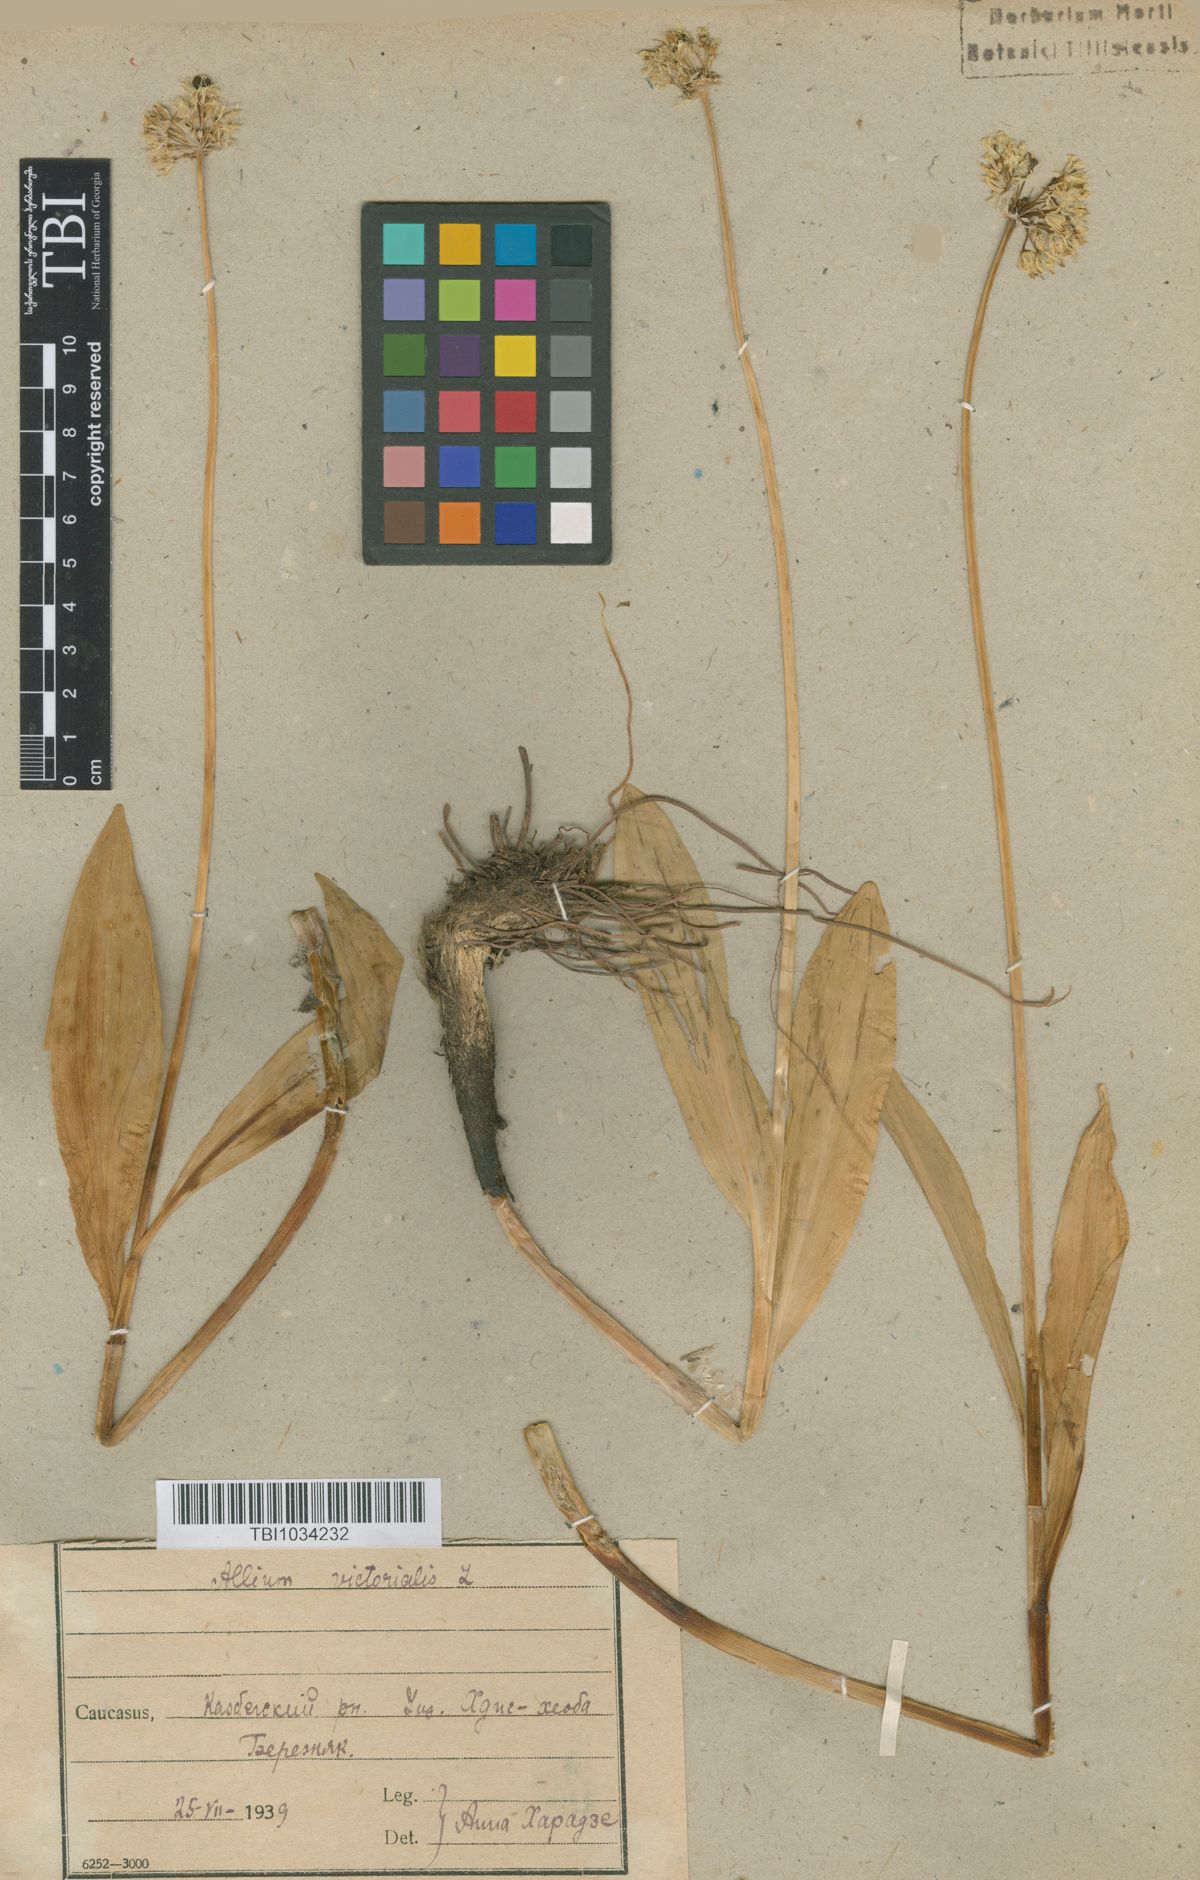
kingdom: Plantae
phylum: Tracheophyta
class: Liliopsida
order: Asparagales
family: Amaryllidaceae
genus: Allium
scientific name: Allium victorialis
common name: Alpine leek
